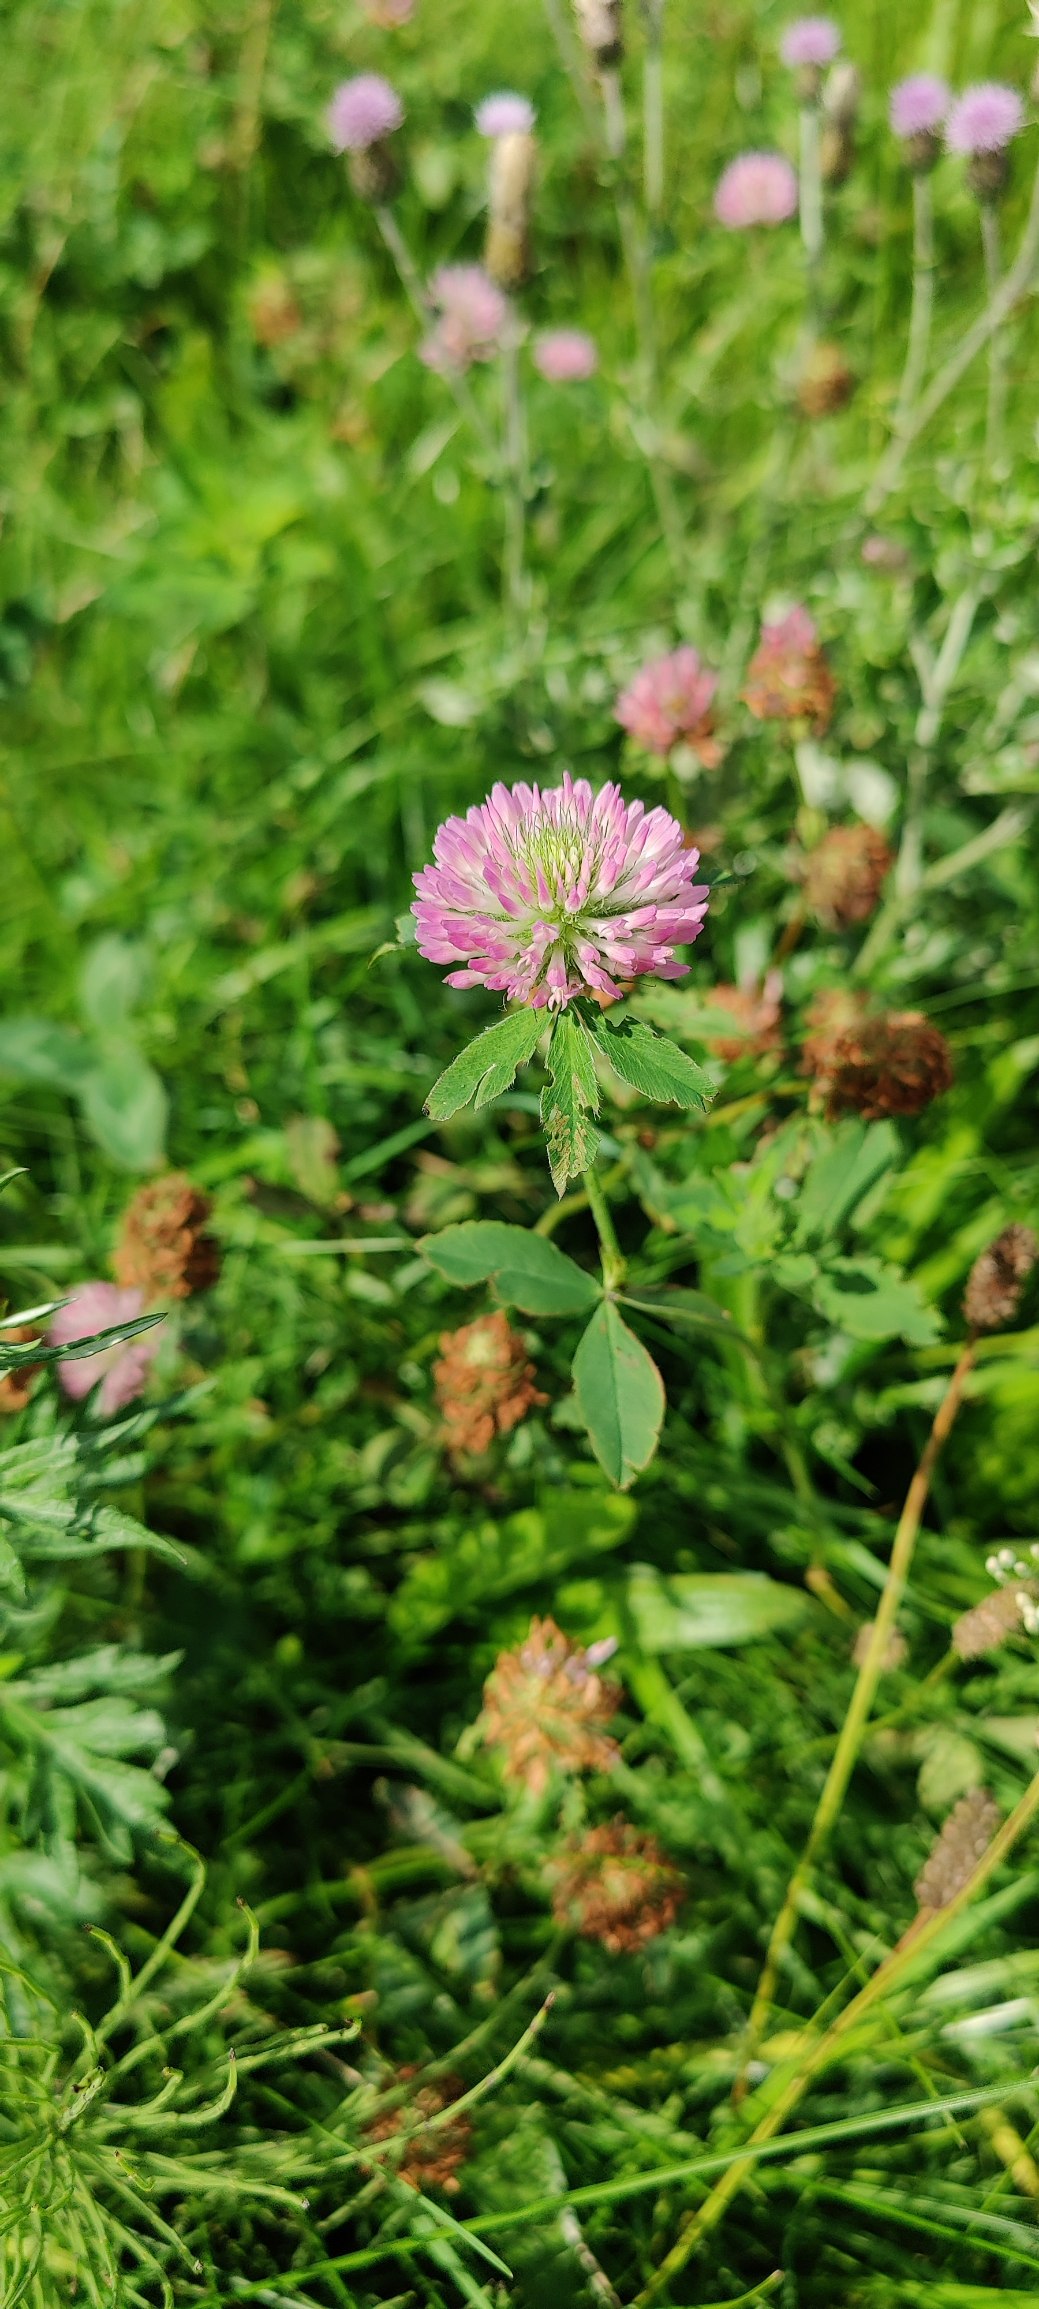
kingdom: Plantae
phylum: Tracheophyta
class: Magnoliopsida
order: Fabales
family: Fabaceae
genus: Trifolium
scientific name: Trifolium pratense
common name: Rød-kløver
